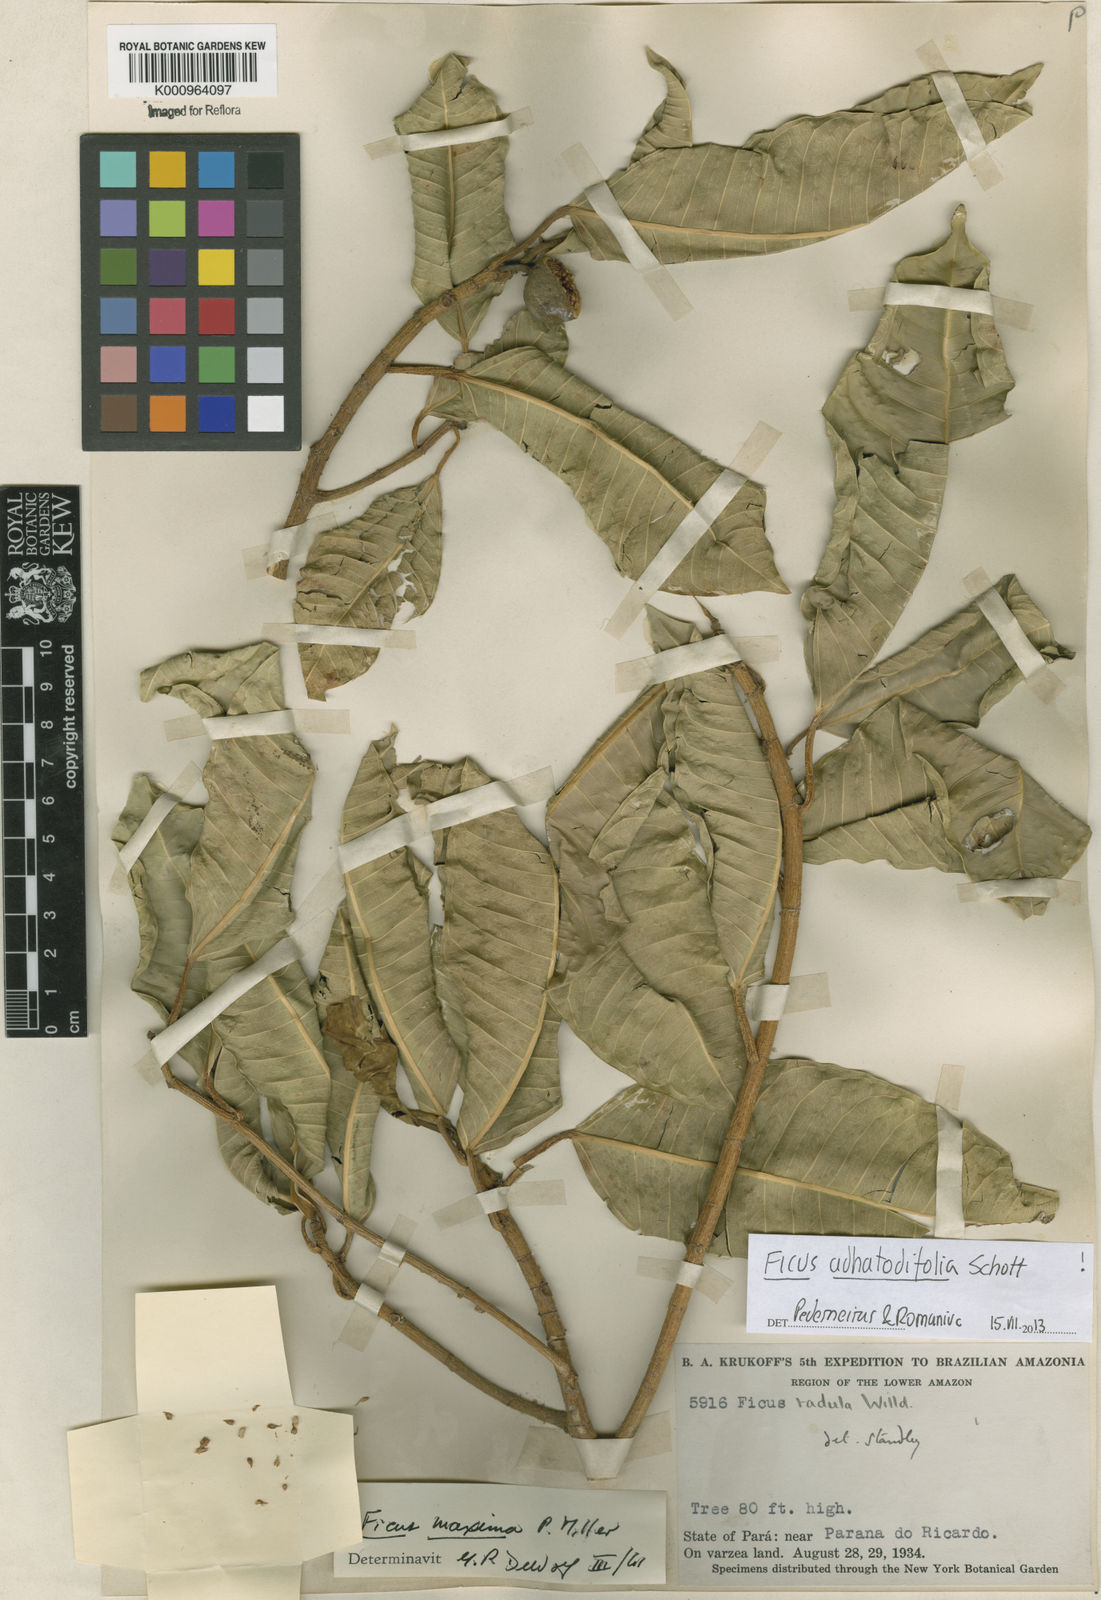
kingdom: Plantae
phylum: Tracheophyta
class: Magnoliopsida
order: Rosales
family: Moraceae
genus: Ficus
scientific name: Ficus
